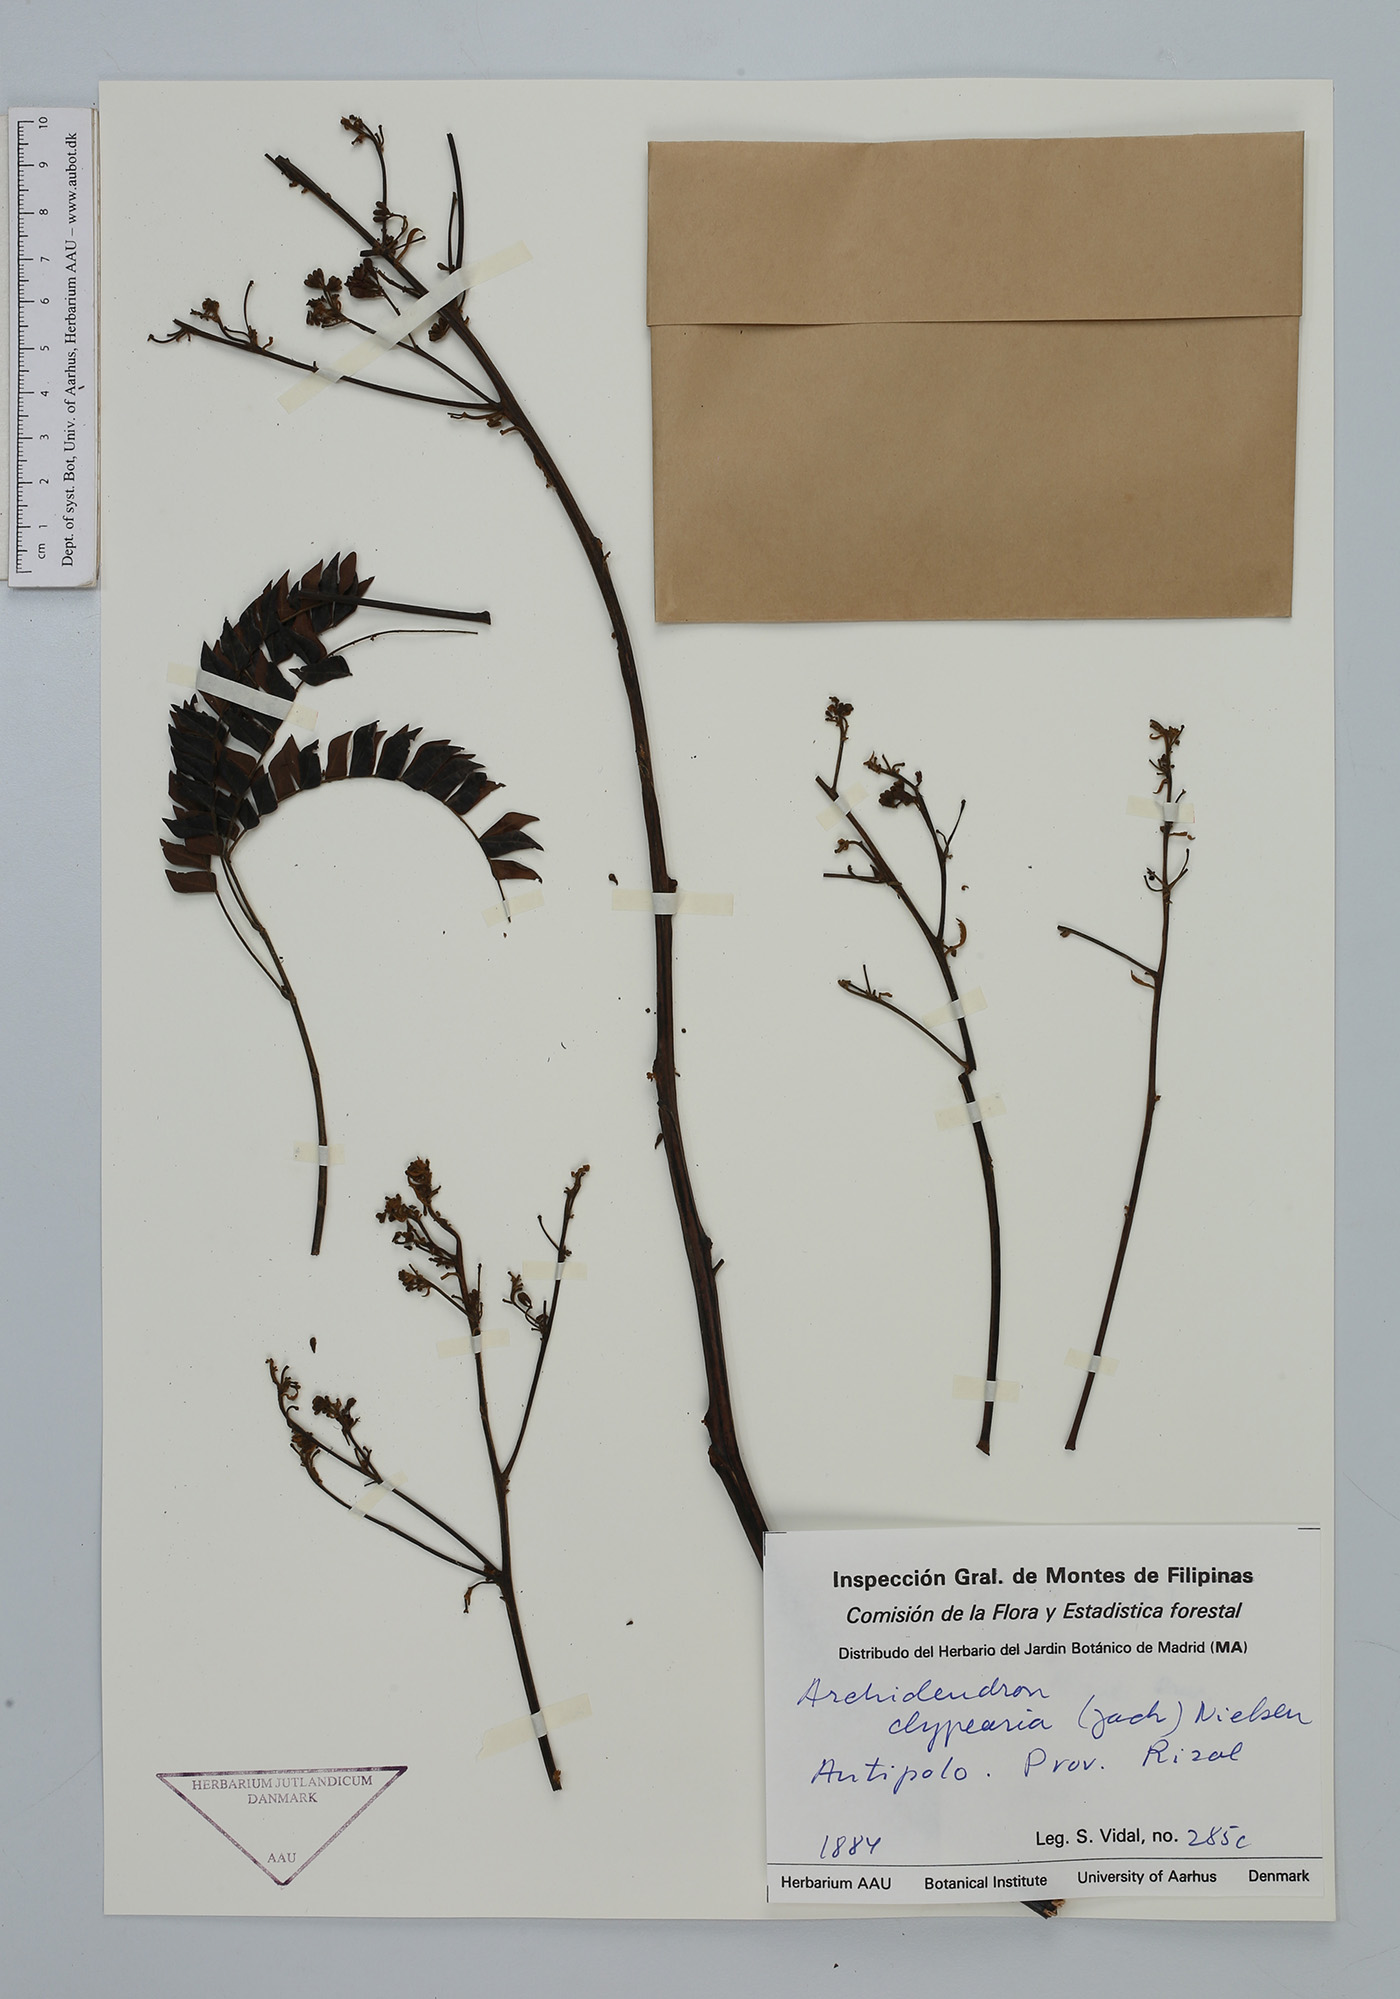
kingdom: Plantae
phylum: Tracheophyta
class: Magnoliopsida
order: Fabales
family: Fabaceae
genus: Archidendron
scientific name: Archidendron clypearia
